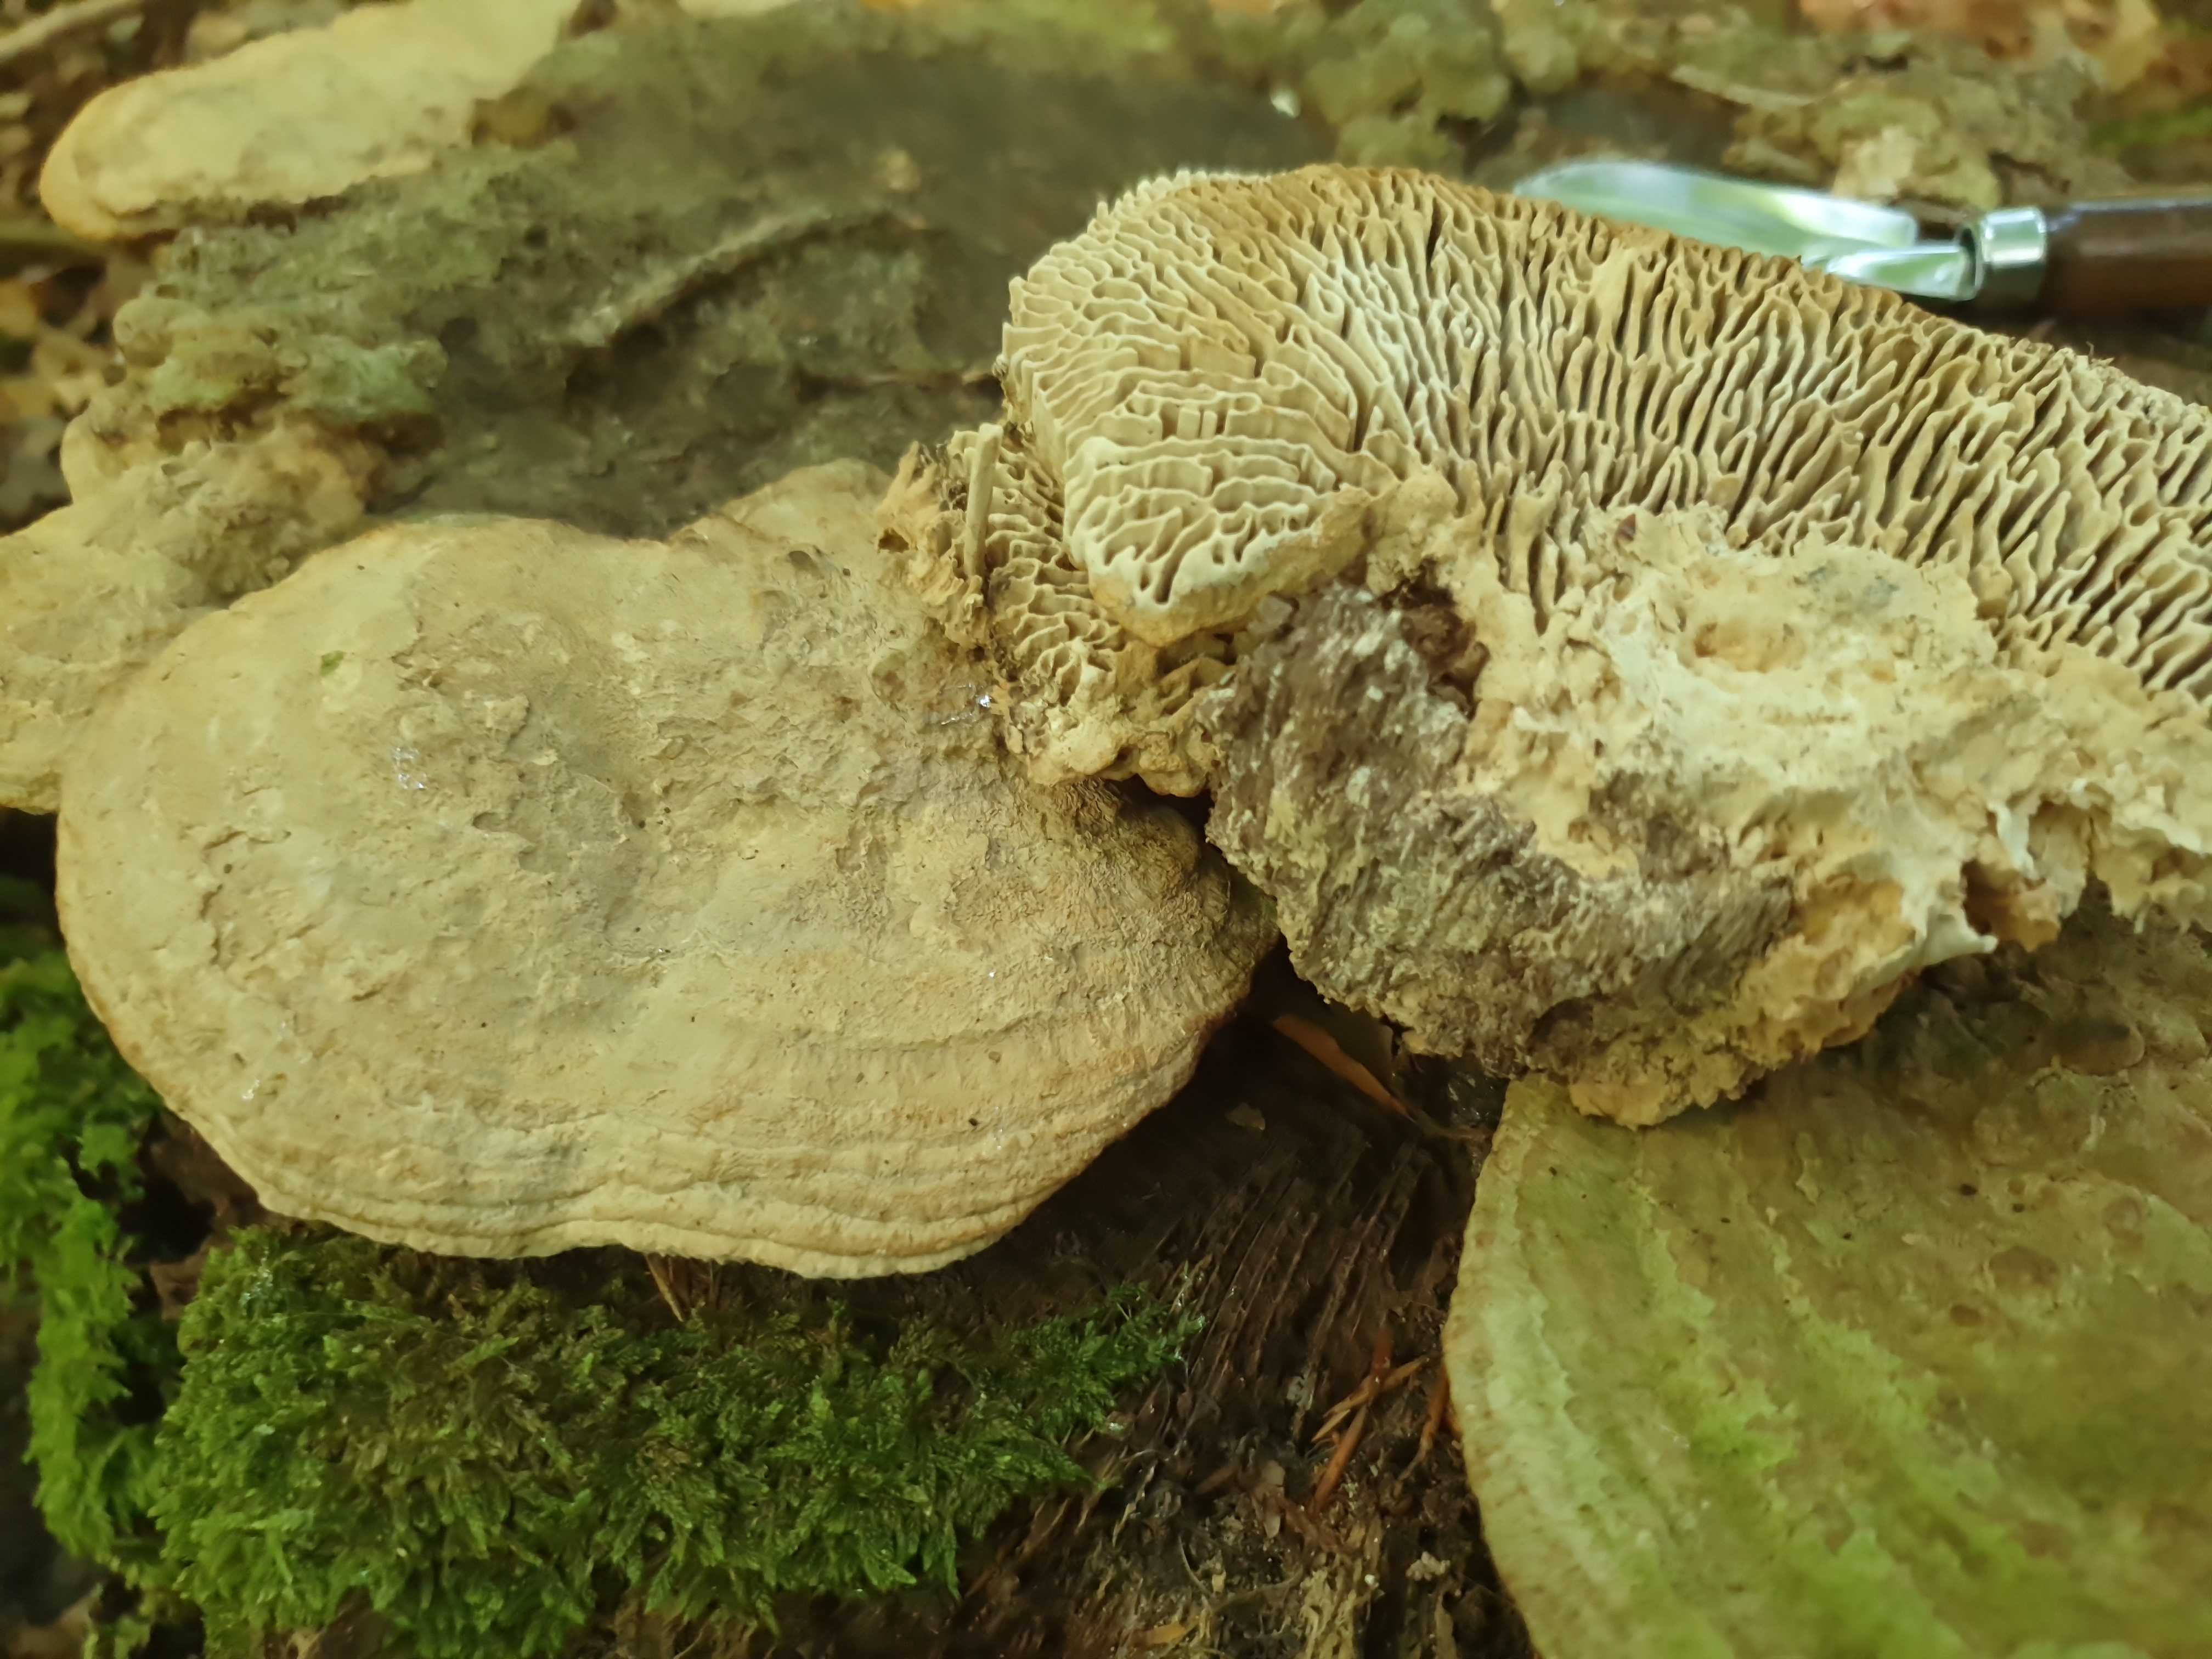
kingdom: Fungi
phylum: Basidiomycota
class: Agaricomycetes
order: Polyporales
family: Fomitopsidaceae
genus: Daedalea
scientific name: Daedalea quercina
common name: ege-labyrintsvamp
